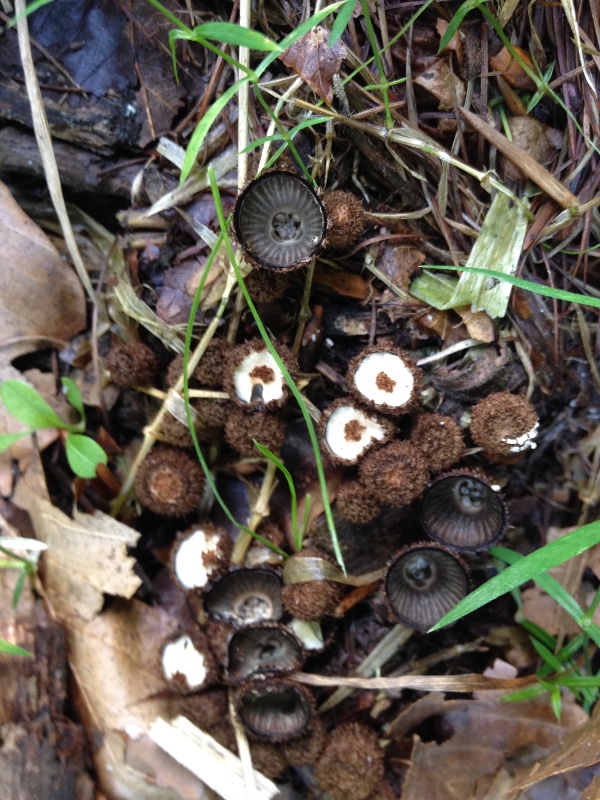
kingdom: Fungi
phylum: Basidiomycota
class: Agaricomycetes
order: Agaricales
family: Agaricaceae
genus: Cyathus
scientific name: Cyathus striatus
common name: stribet redesvamp
